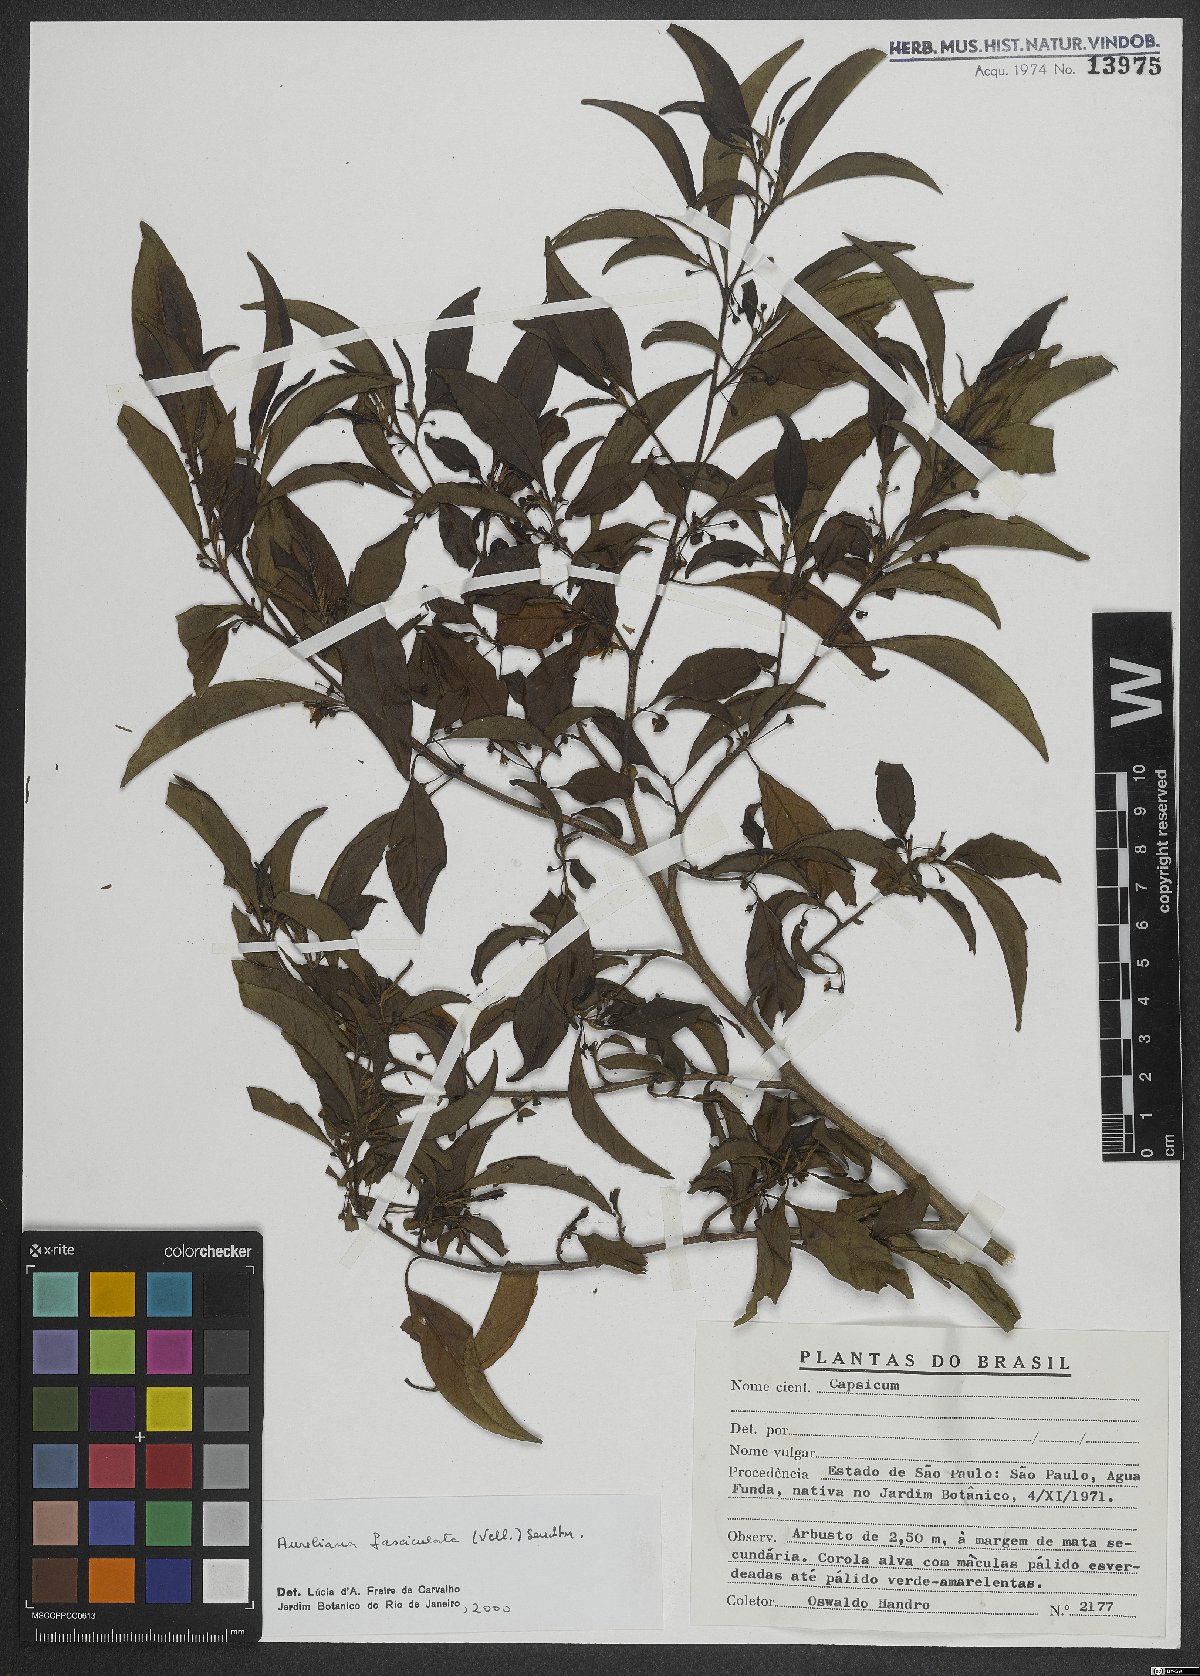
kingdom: Plantae
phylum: Tracheophyta
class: Magnoliopsida
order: Solanales
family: Solanaceae
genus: Athenaea
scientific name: Athenaea fasciculata
